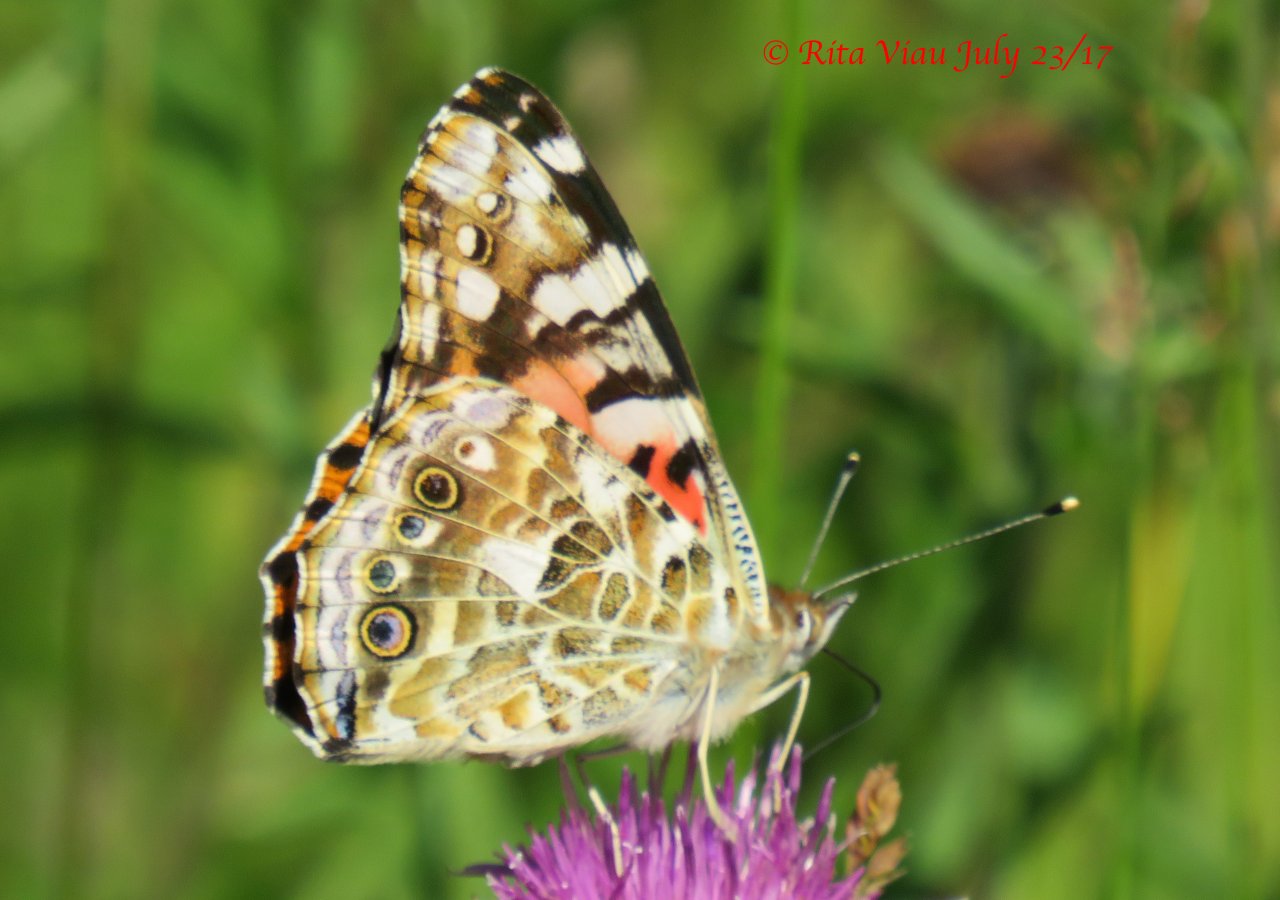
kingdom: Animalia
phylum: Arthropoda
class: Insecta
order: Lepidoptera
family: Nymphalidae
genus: Vanessa
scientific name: Vanessa cardui
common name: Painted Lady
